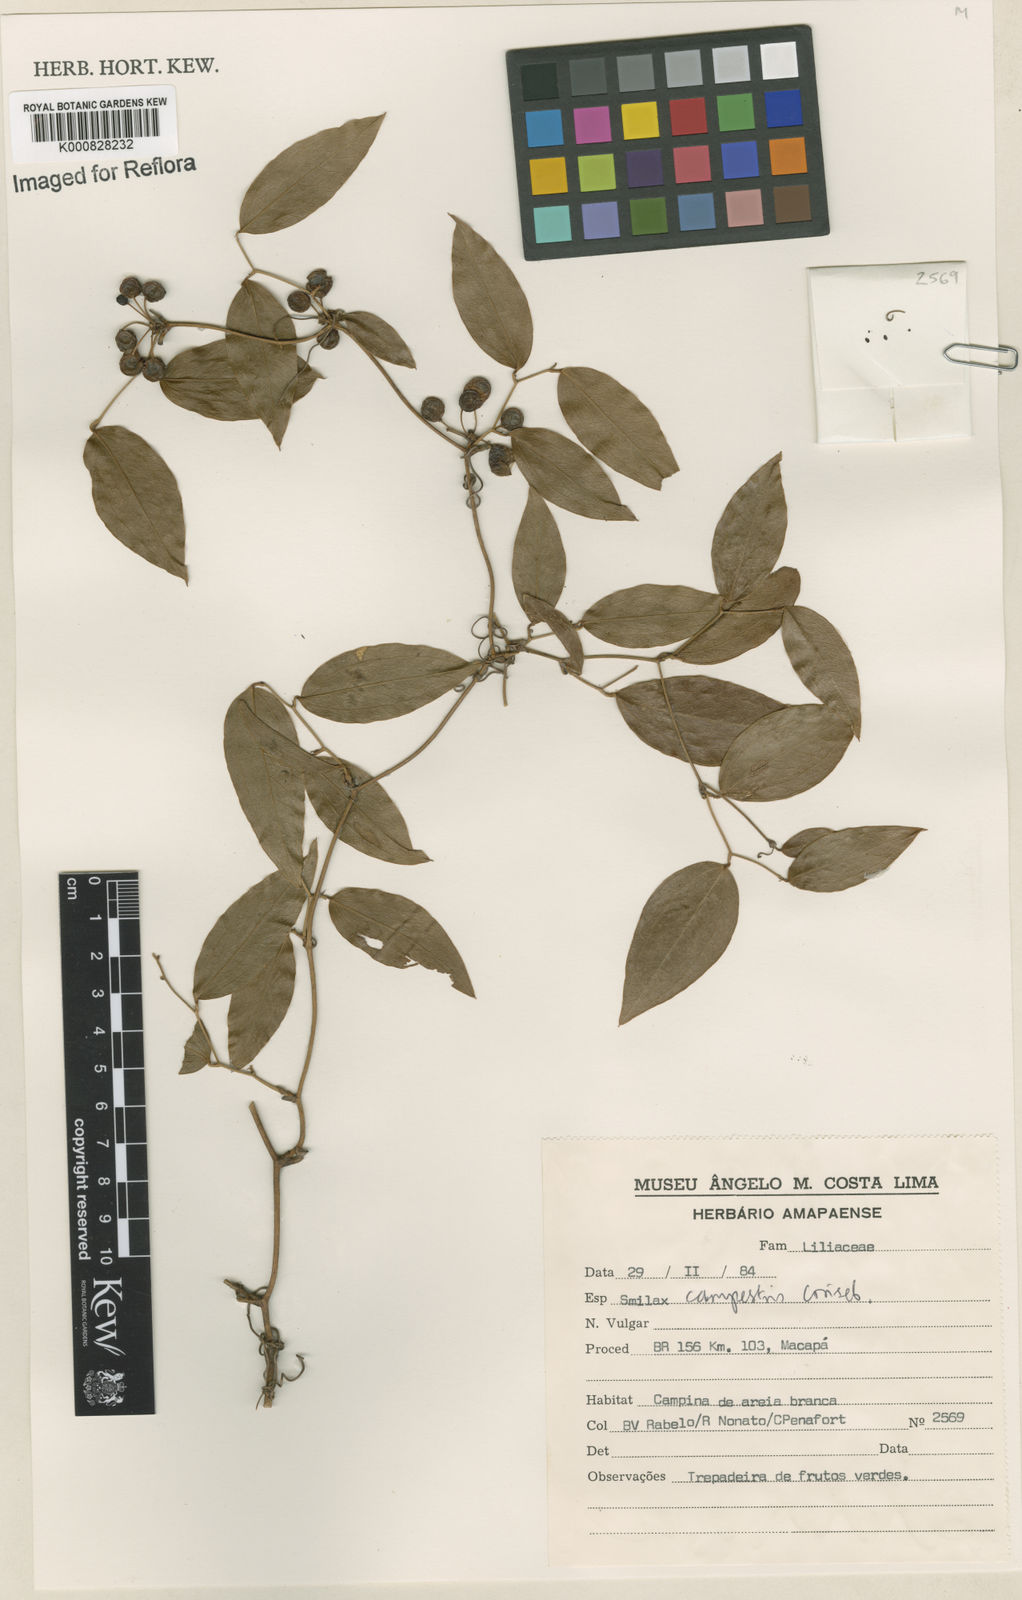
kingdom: Plantae
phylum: Tracheophyta
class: Liliopsida
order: Liliales
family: Smilacaceae
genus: Smilax
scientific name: Smilax campestris
